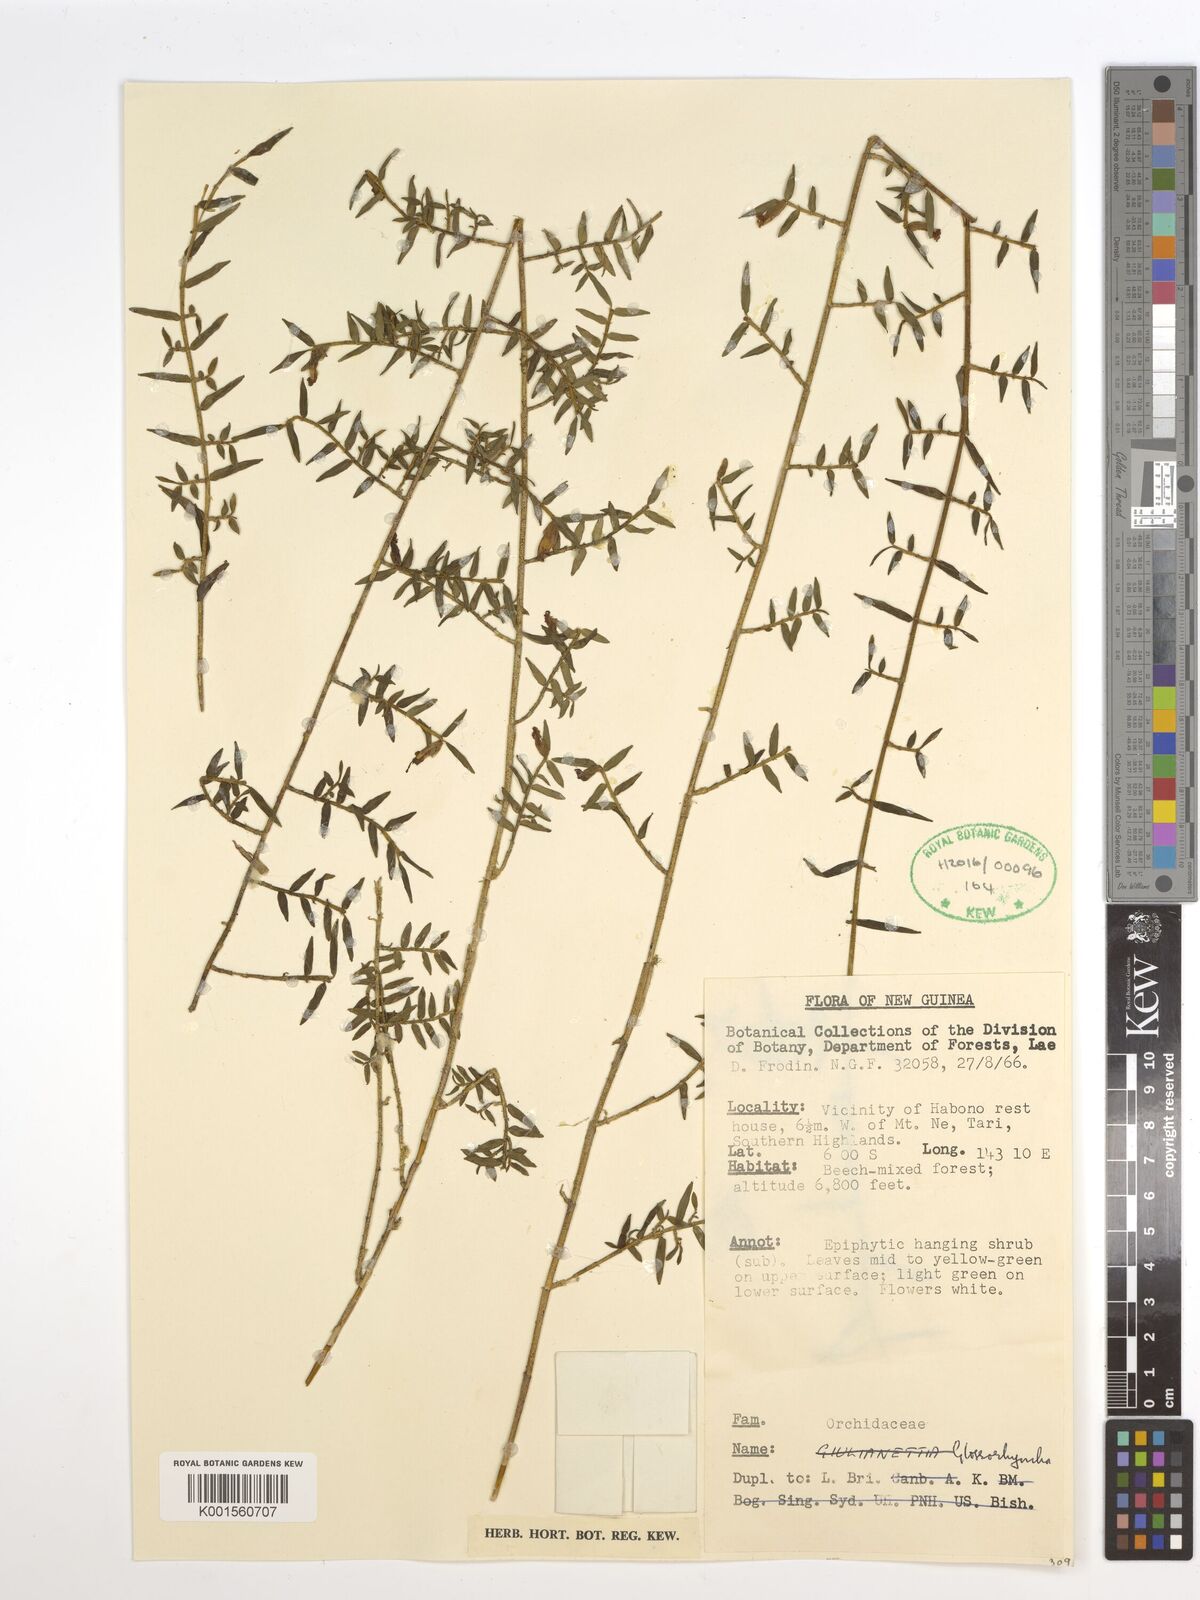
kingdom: Plantae
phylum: Tracheophyta
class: Liliopsida
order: Asparagales
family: Orchidaceae
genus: Glomera
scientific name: Glomera
